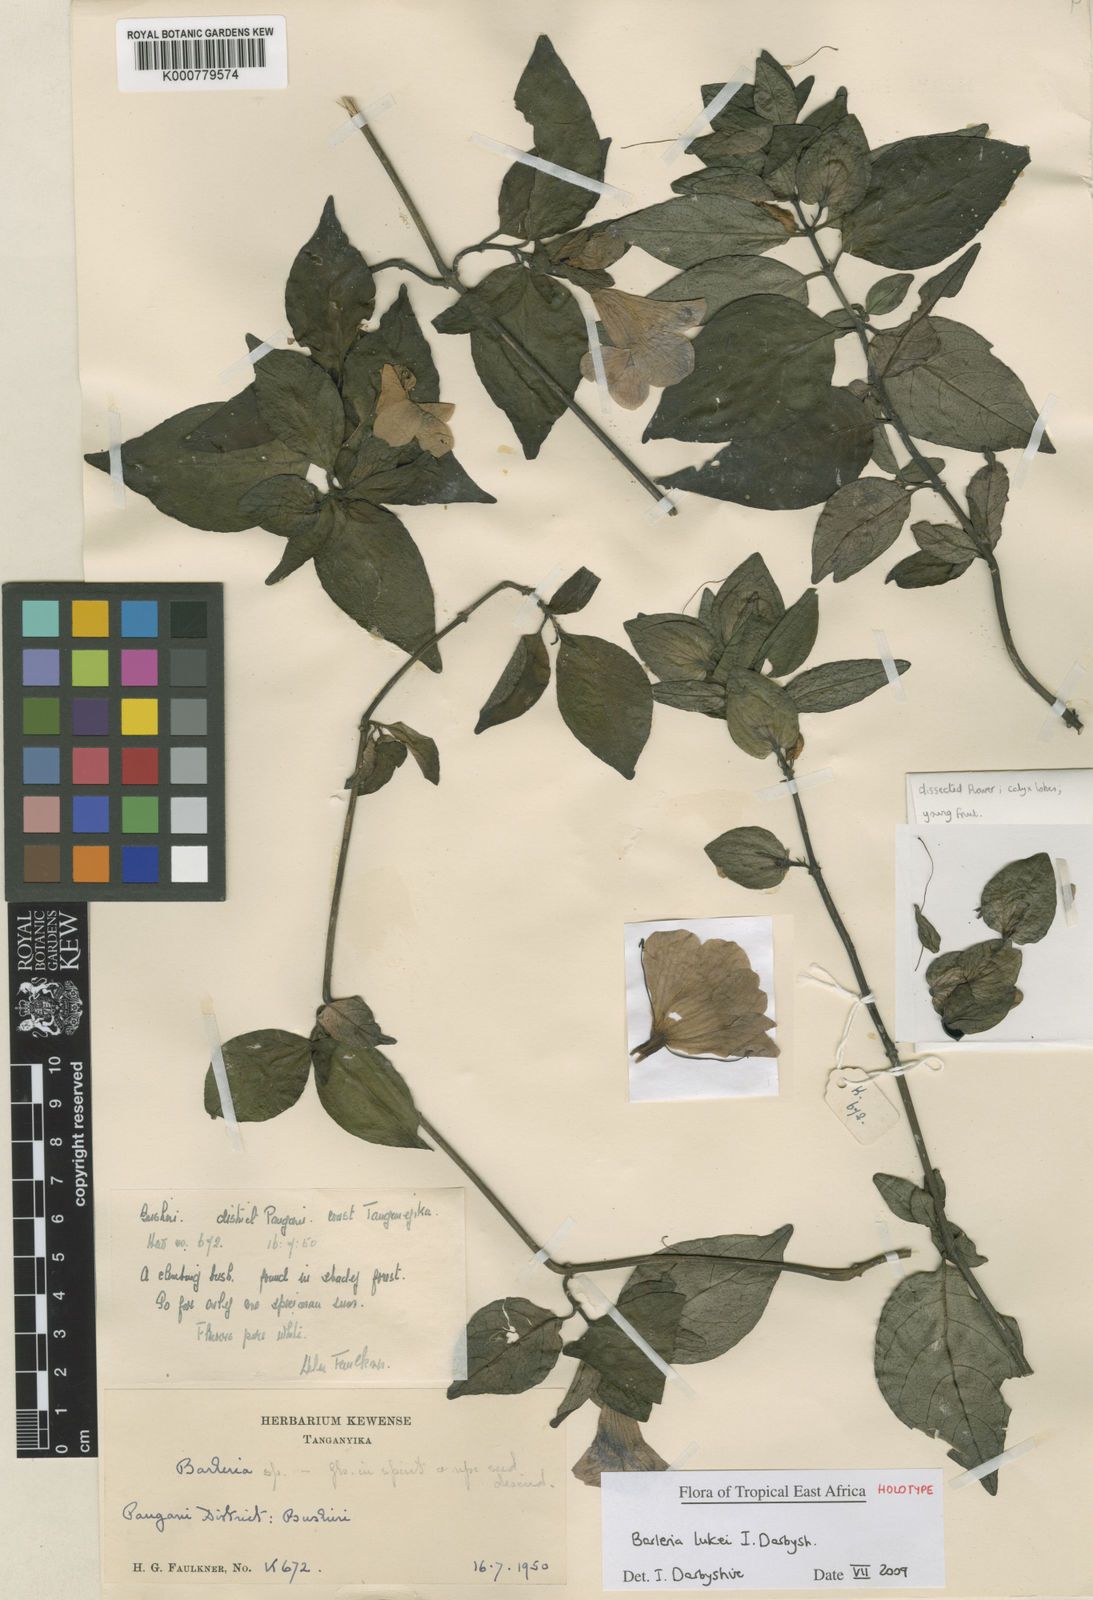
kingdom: Plantae
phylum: Tracheophyta
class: Magnoliopsida
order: Lamiales
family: Acanthaceae
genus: Barleria
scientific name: Barleria lukei
